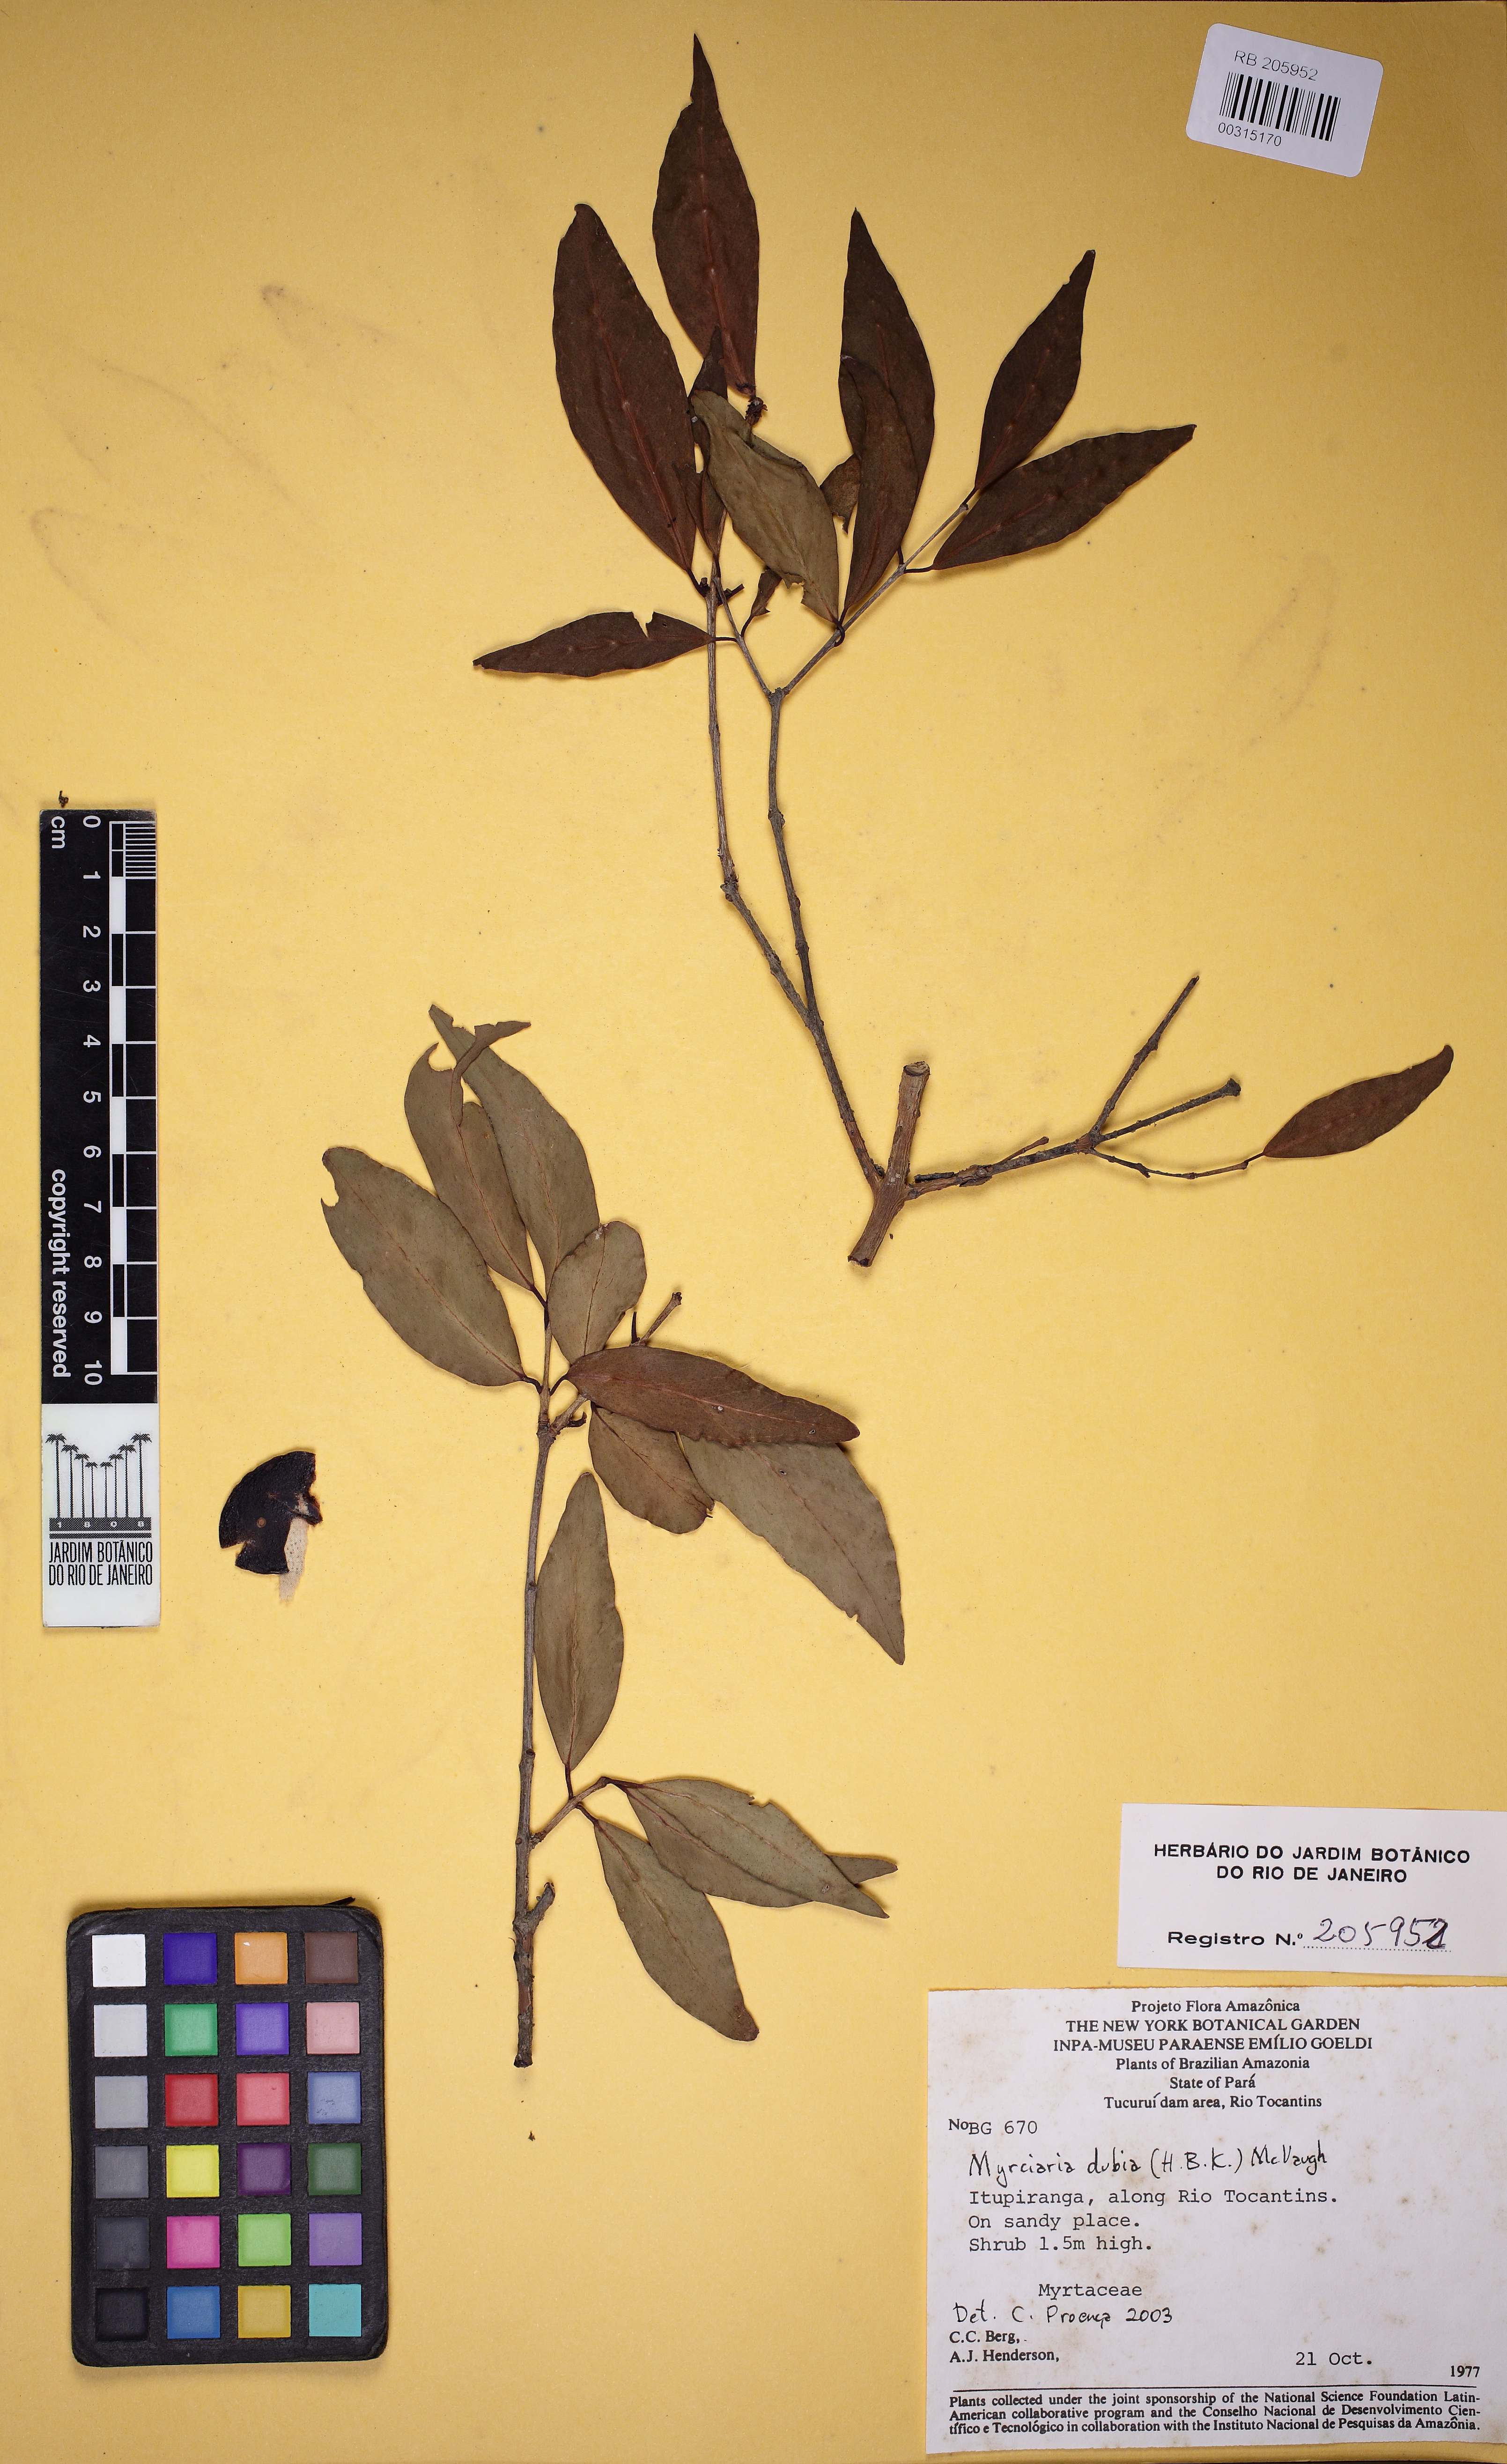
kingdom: Plantae
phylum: Tracheophyta
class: Magnoliopsida
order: Myrtales
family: Myrtaceae
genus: Myrciaria
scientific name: Myrciaria dubia
